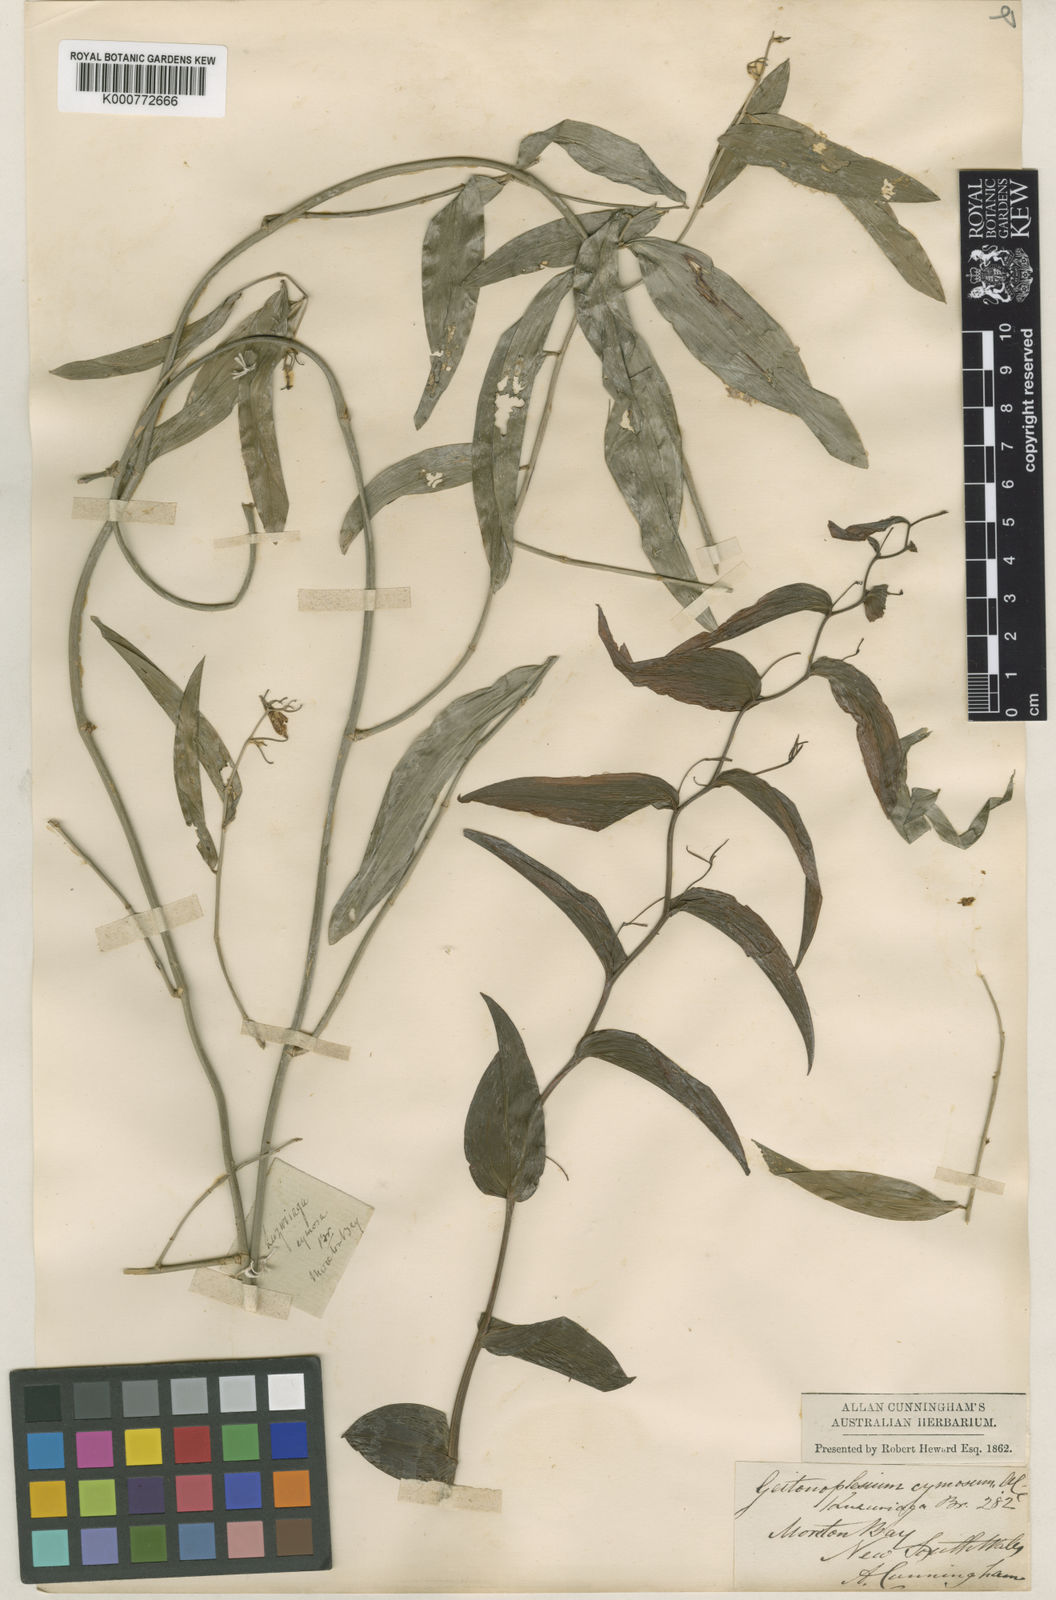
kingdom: Plantae
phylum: Tracheophyta
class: Liliopsida
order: Asparagales
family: Asphodelaceae
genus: Geitonoplesium
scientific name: Geitonoplesium
